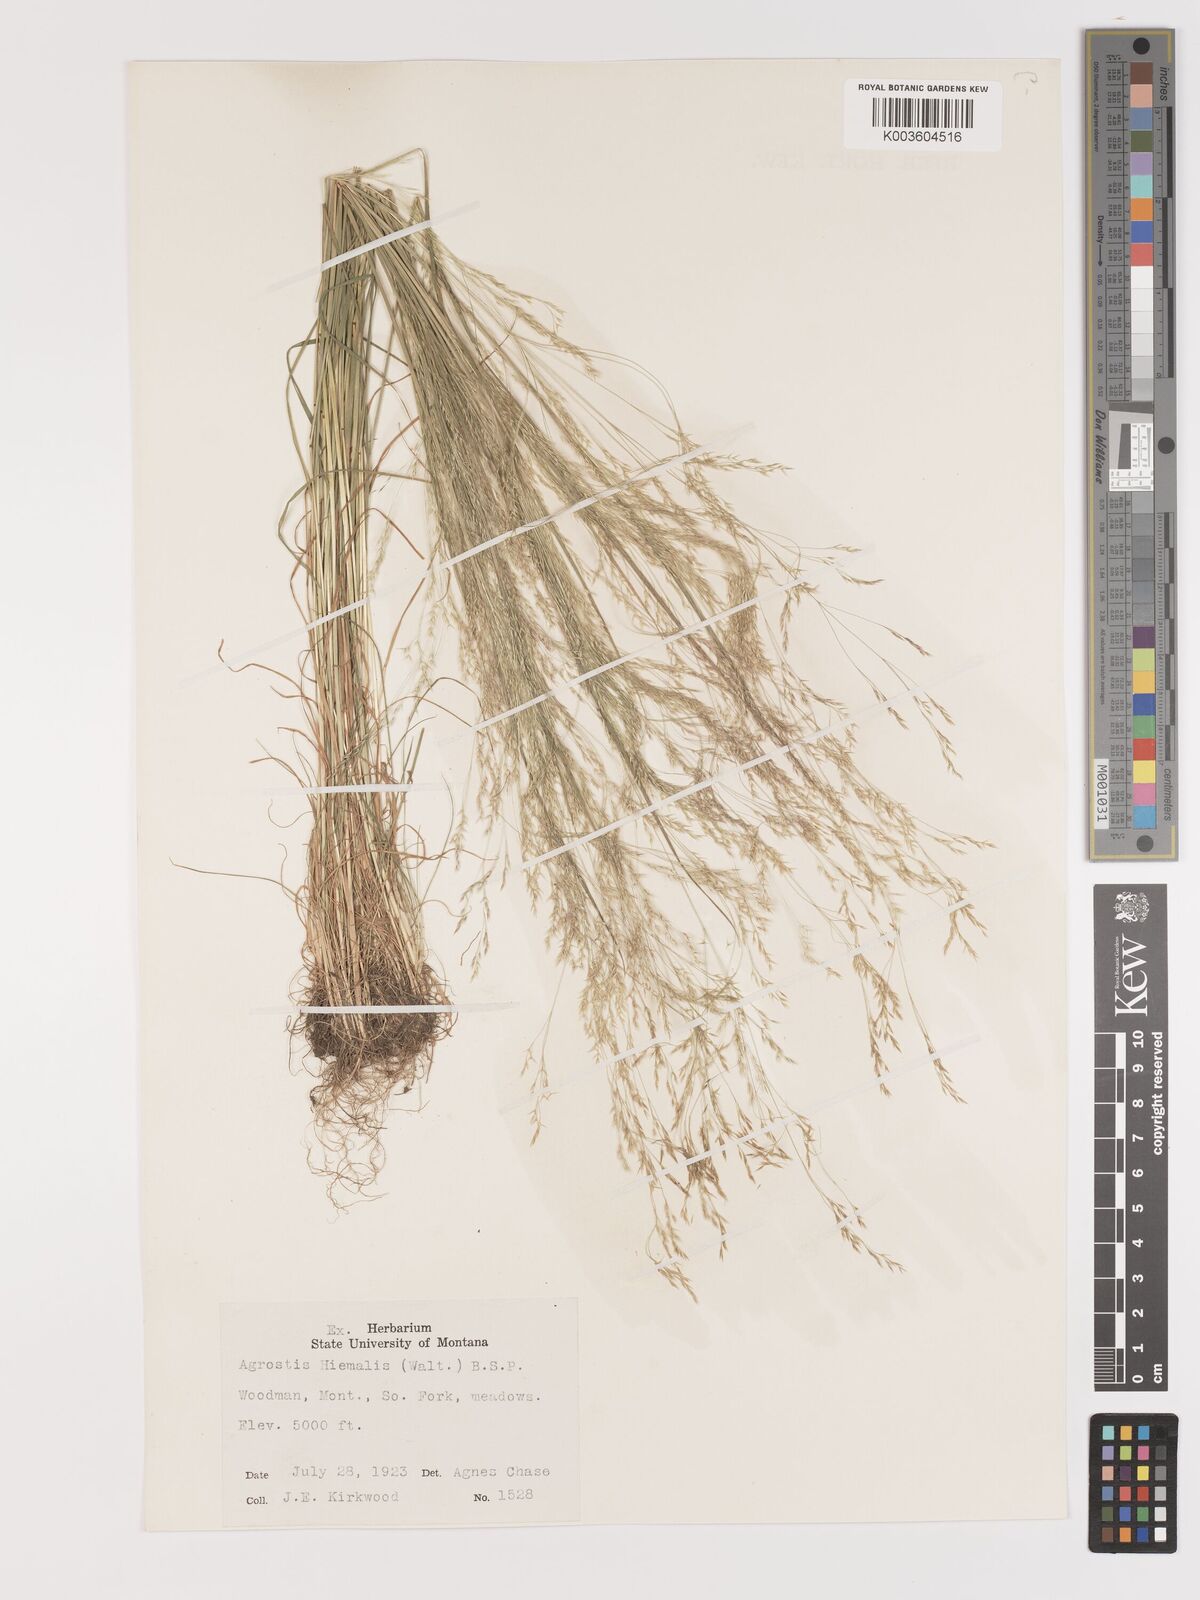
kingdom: Plantae
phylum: Tracheophyta
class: Liliopsida
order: Poales
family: Poaceae
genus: Agrostis
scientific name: Agrostis hyemalis
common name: Small bent
